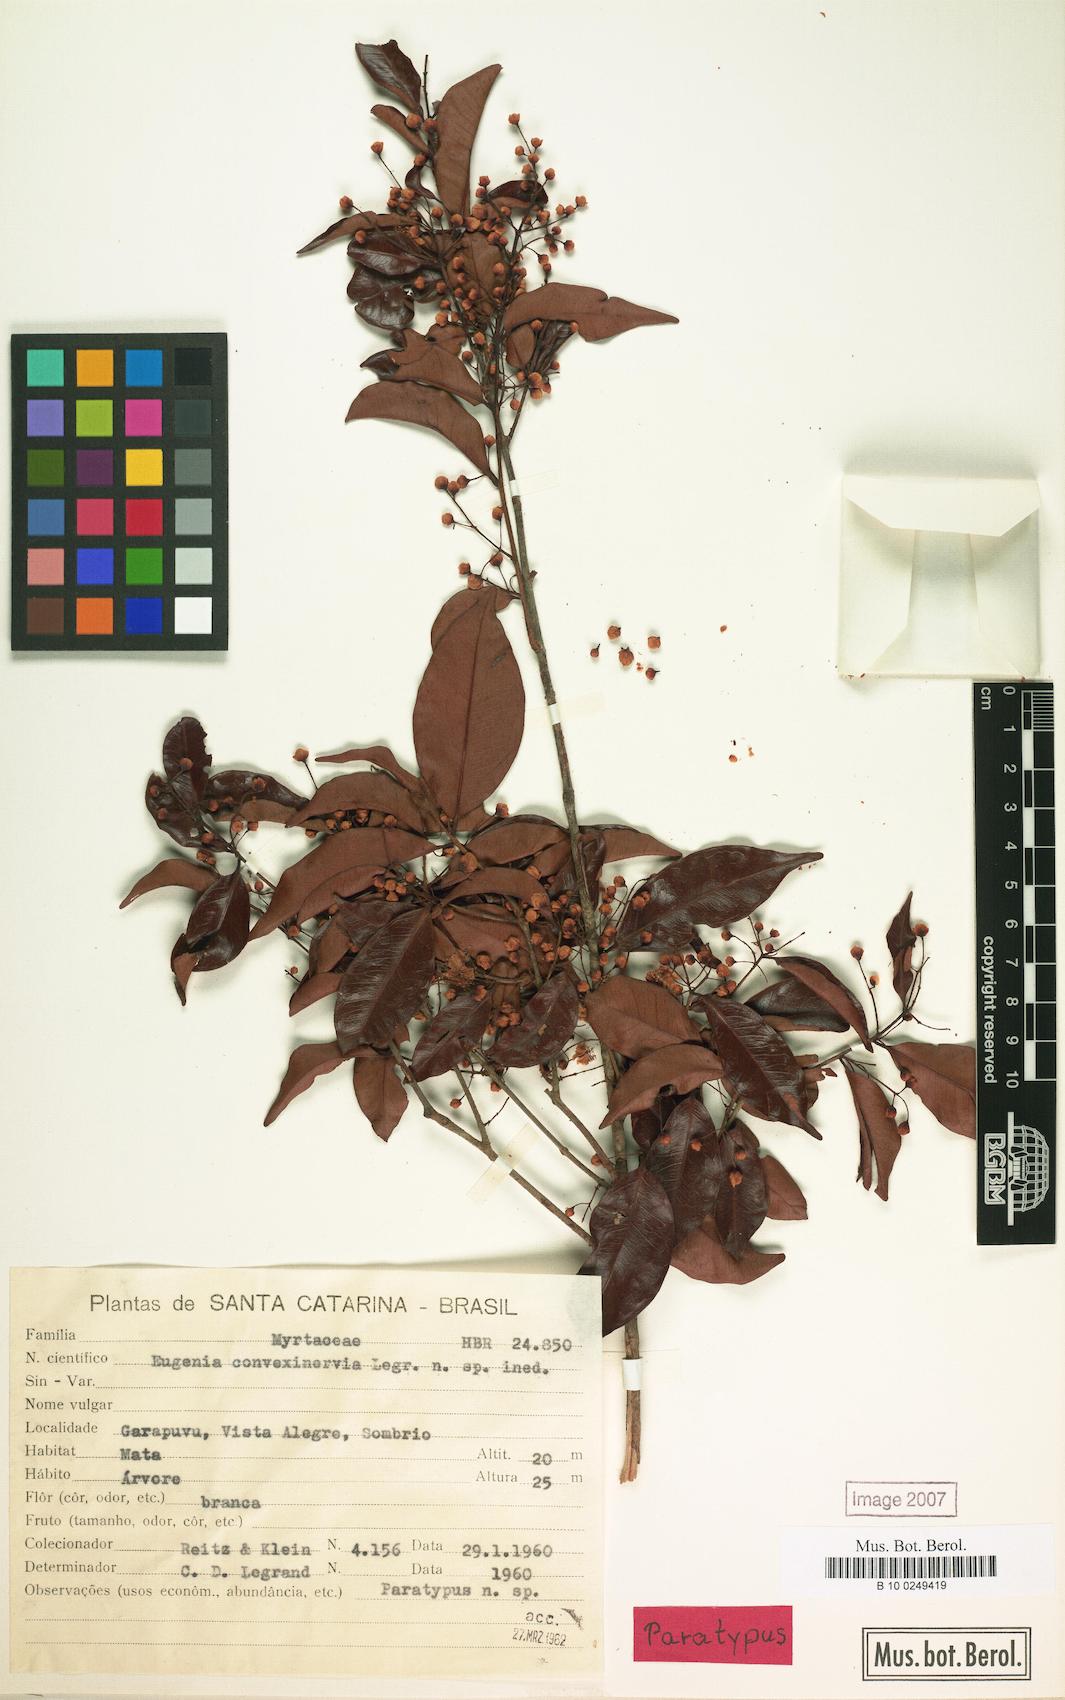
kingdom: Plantae
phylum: Tracheophyta
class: Magnoliopsida
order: Myrtales
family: Myrtaceae
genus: Eugenia
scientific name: Eugenia convexinervia
